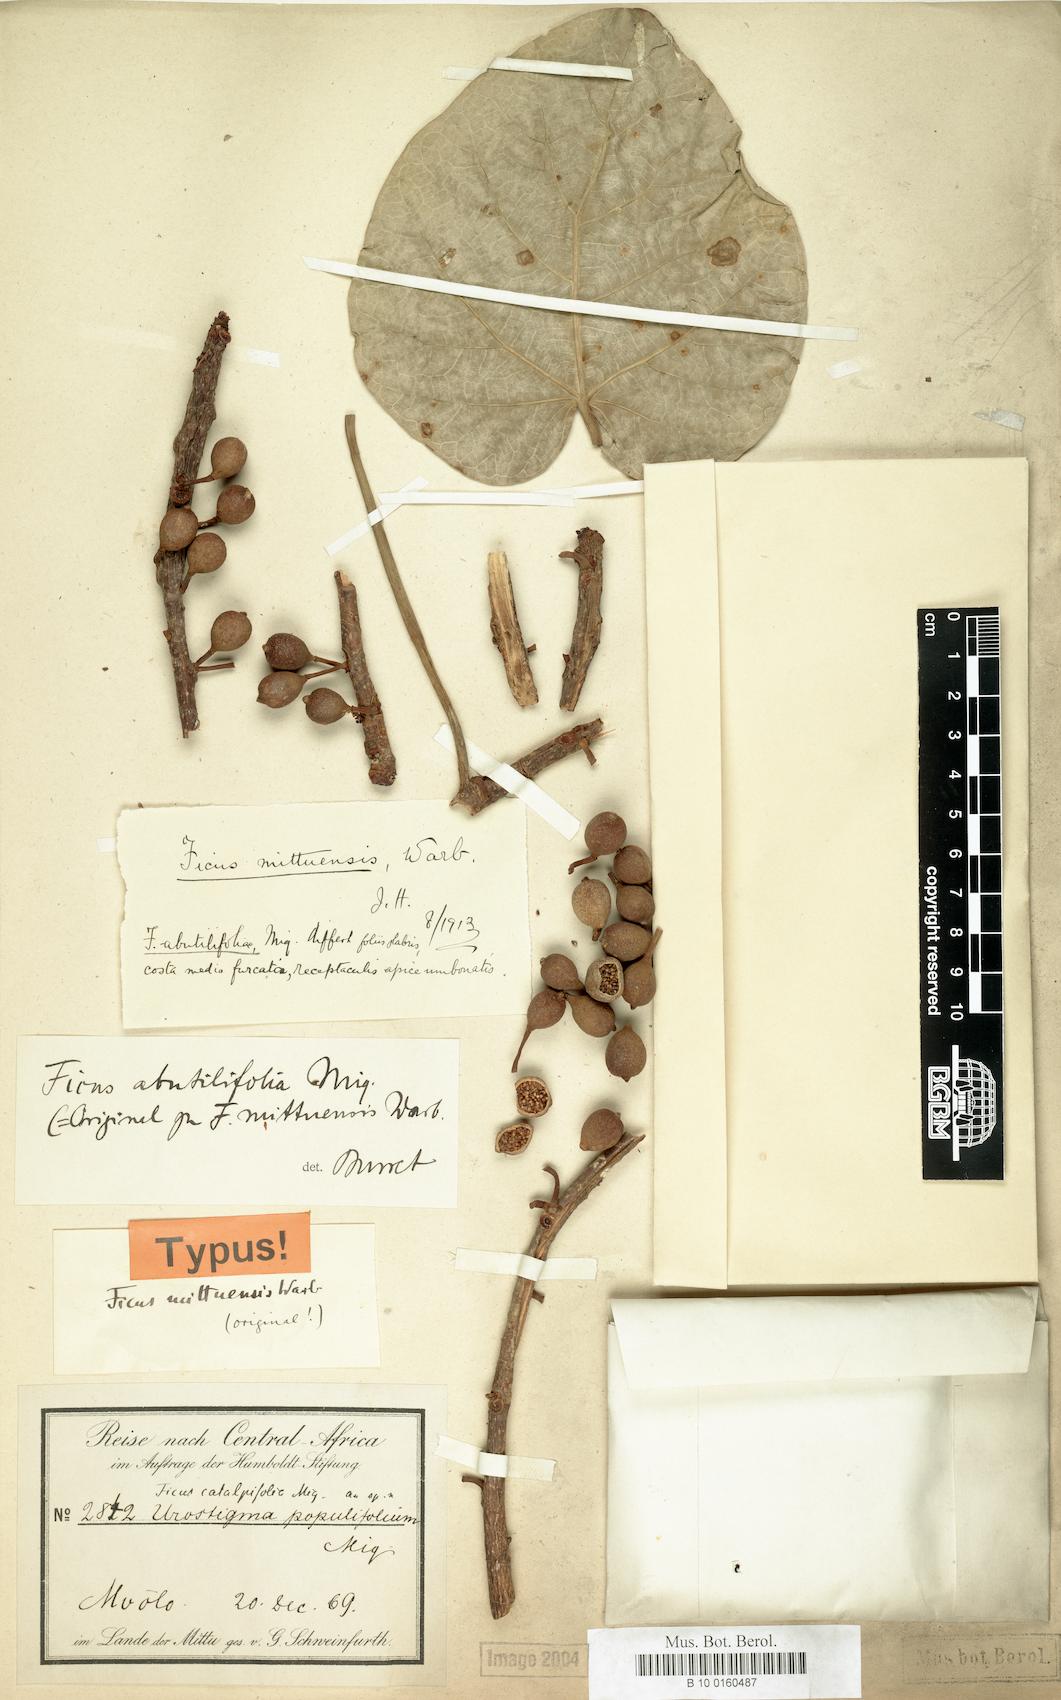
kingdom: Plantae
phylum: Tracheophyta
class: Magnoliopsida
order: Rosales
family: Moraceae
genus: Ficus
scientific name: Ficus abutilifolia
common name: Large-leaved rock fig
